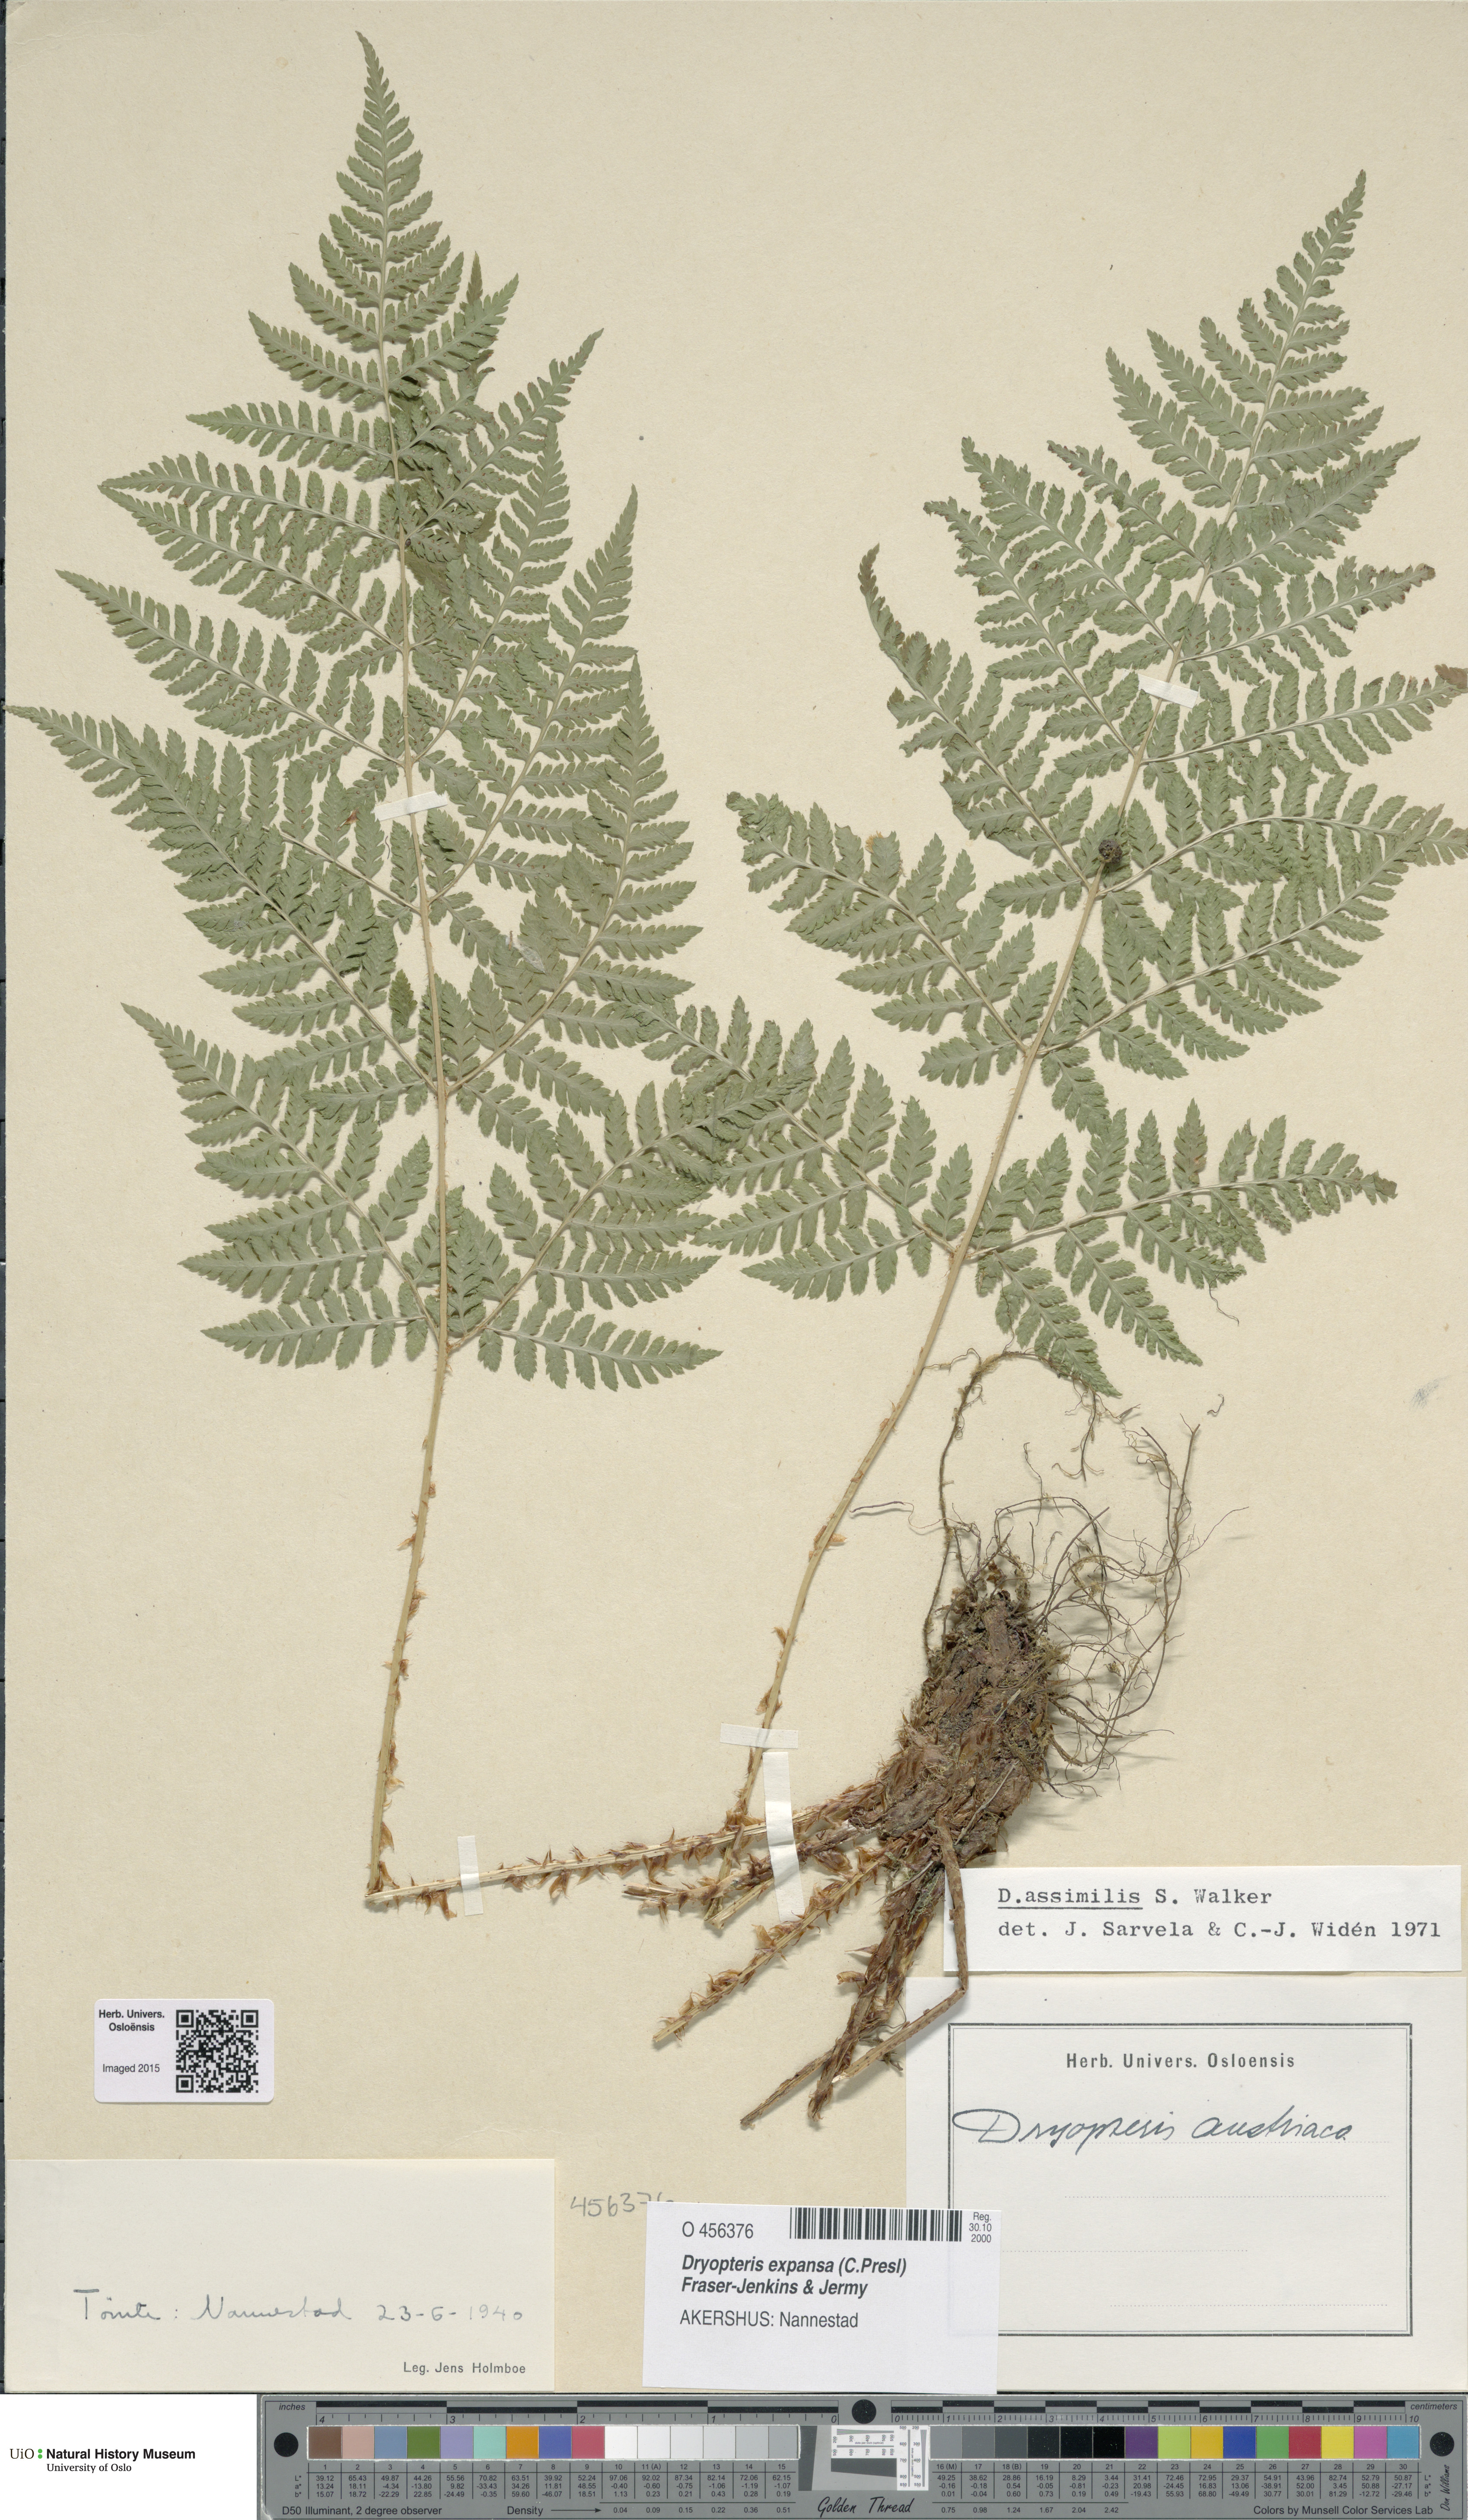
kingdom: Plantae
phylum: Tracheophyta
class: Polypodiopsida
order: Polypodiales
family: Dryopteridaceae
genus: Dryopteris
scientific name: Dryopteris expansa
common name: Northern buckler fern
